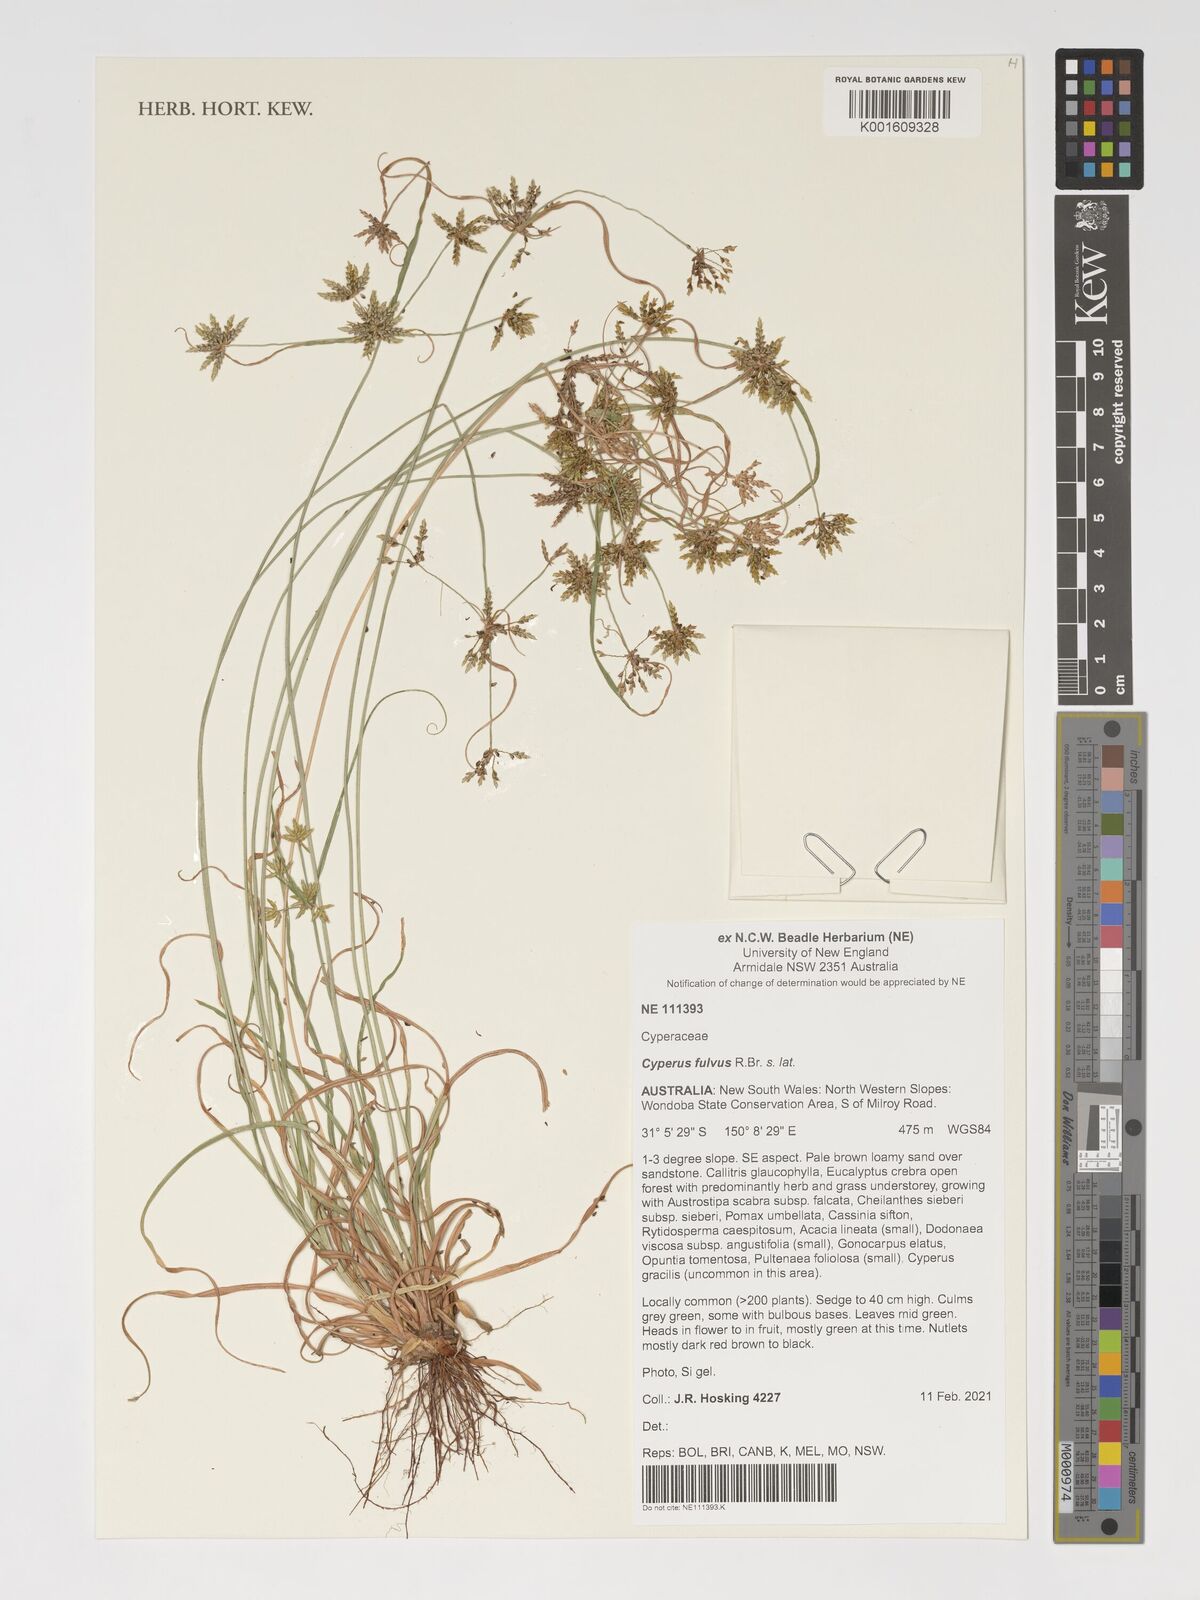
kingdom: Plantae
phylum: Tracheophyta
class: Liliopsida
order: Poales
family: Cyperaceae
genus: Cyperus
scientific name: Cyperus fulvus
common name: Sticky sedge
